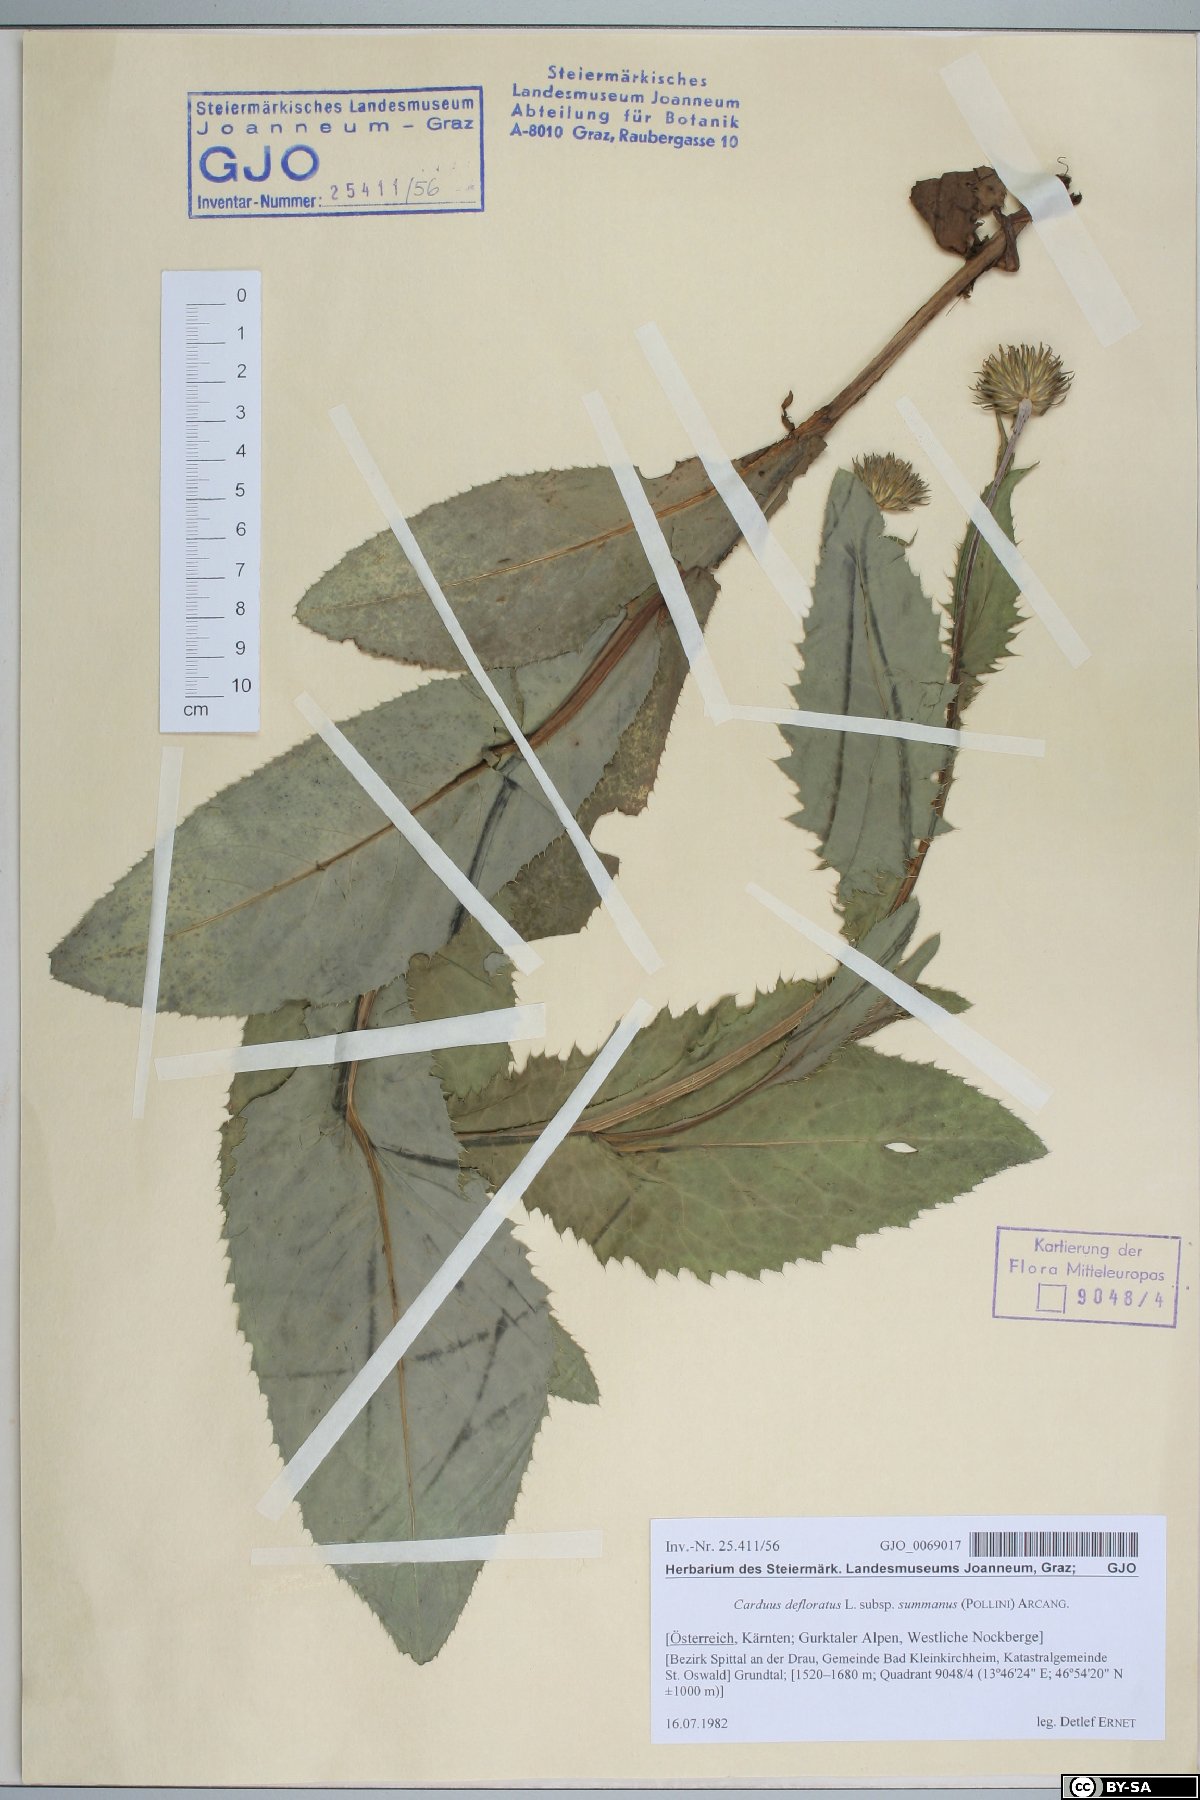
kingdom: Plantae
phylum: Tracheophyta
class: Magnoliopsida
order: Asterales
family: Asteraceae
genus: Carduus
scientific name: Carduus defloratus
